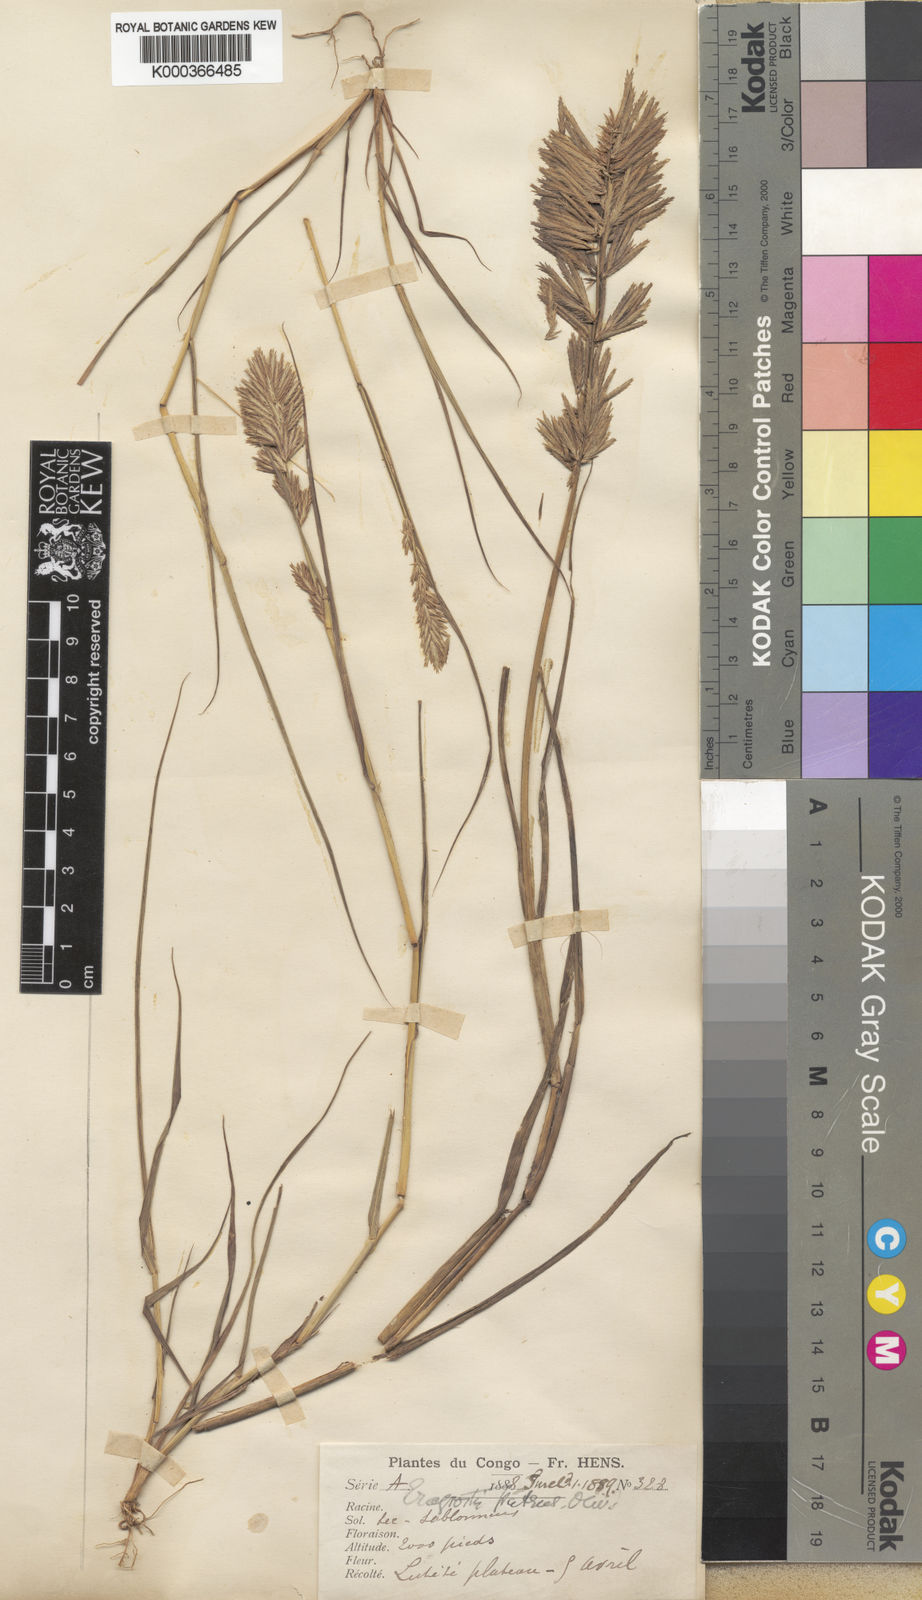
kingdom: Plantae
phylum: Tracheophyta
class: Liliopsida
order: Poales
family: Poaceae
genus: Eragrostis
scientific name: Eragrostis patens
